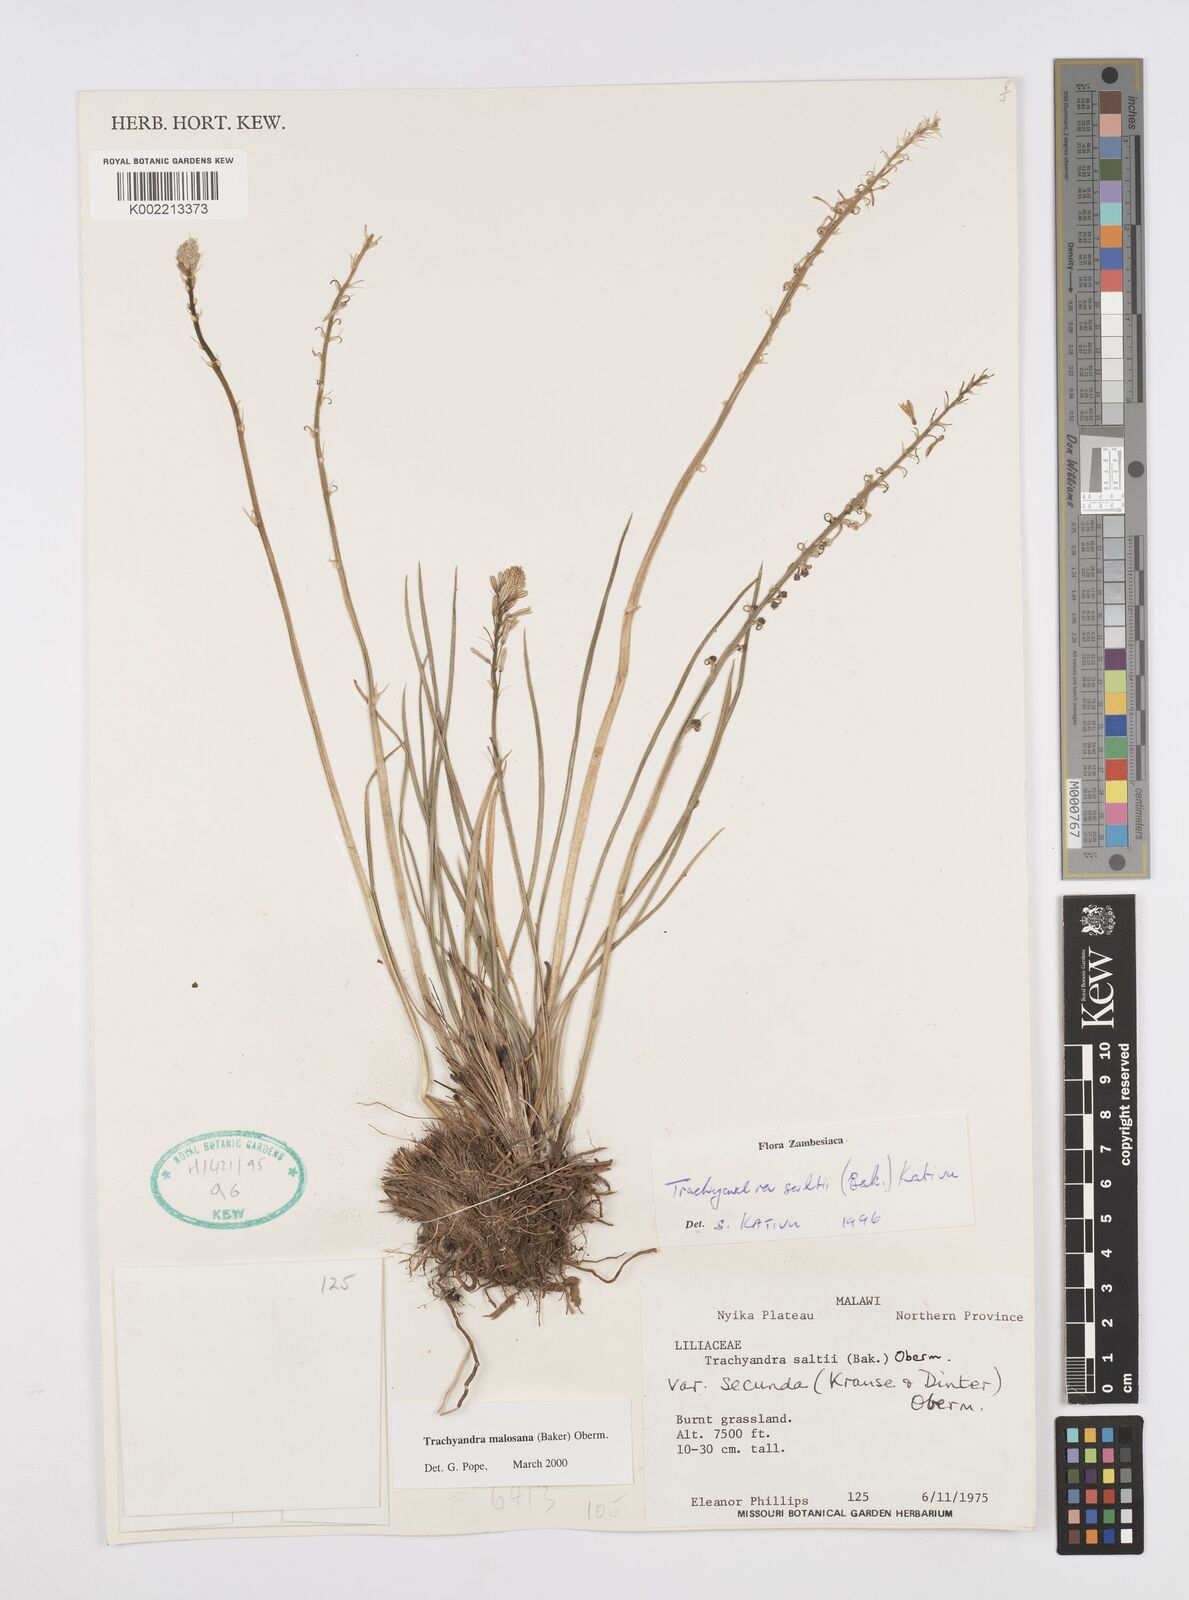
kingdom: Plantae
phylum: Tracheophyta
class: Liliopsida
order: Asparagales
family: Asphodelaceae
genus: Trachyandra
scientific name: Trachyandra malosana
